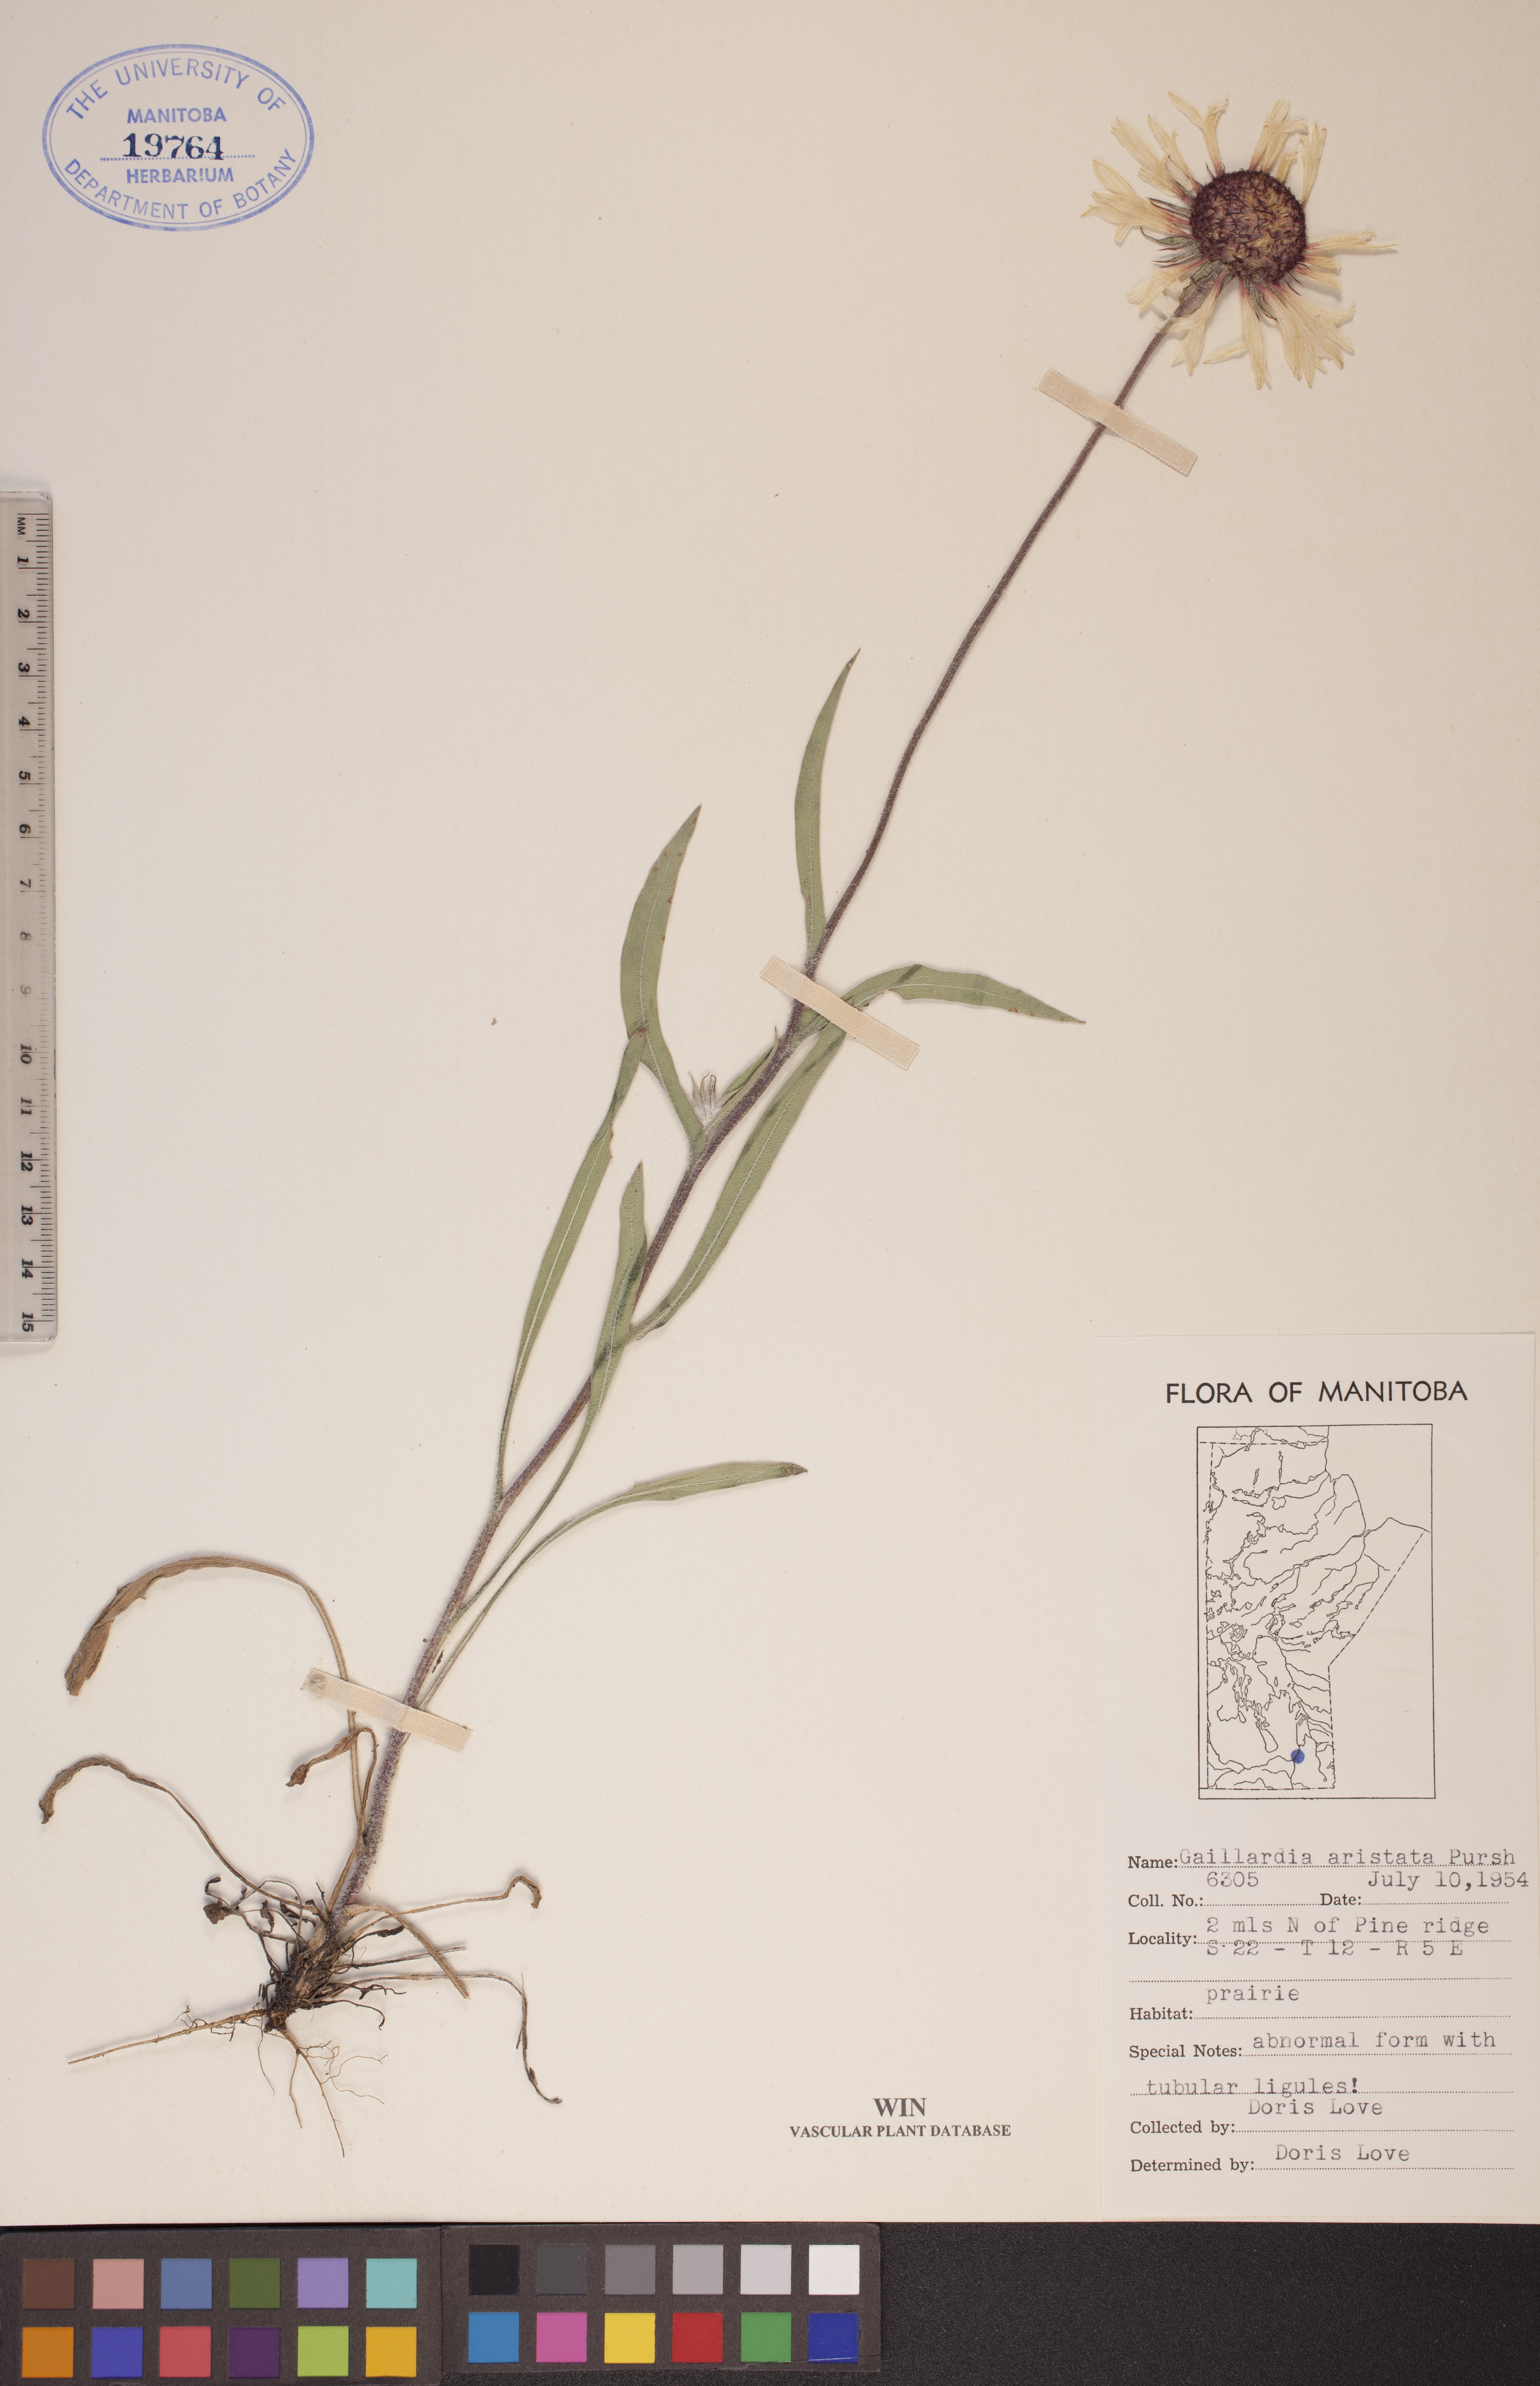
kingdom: Plantae
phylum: Tracheophyta
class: Magnoliopsida
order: Asterales
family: Asteraceae
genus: Gaillardia
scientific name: Gaillardia aristata
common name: Blanket-flower
